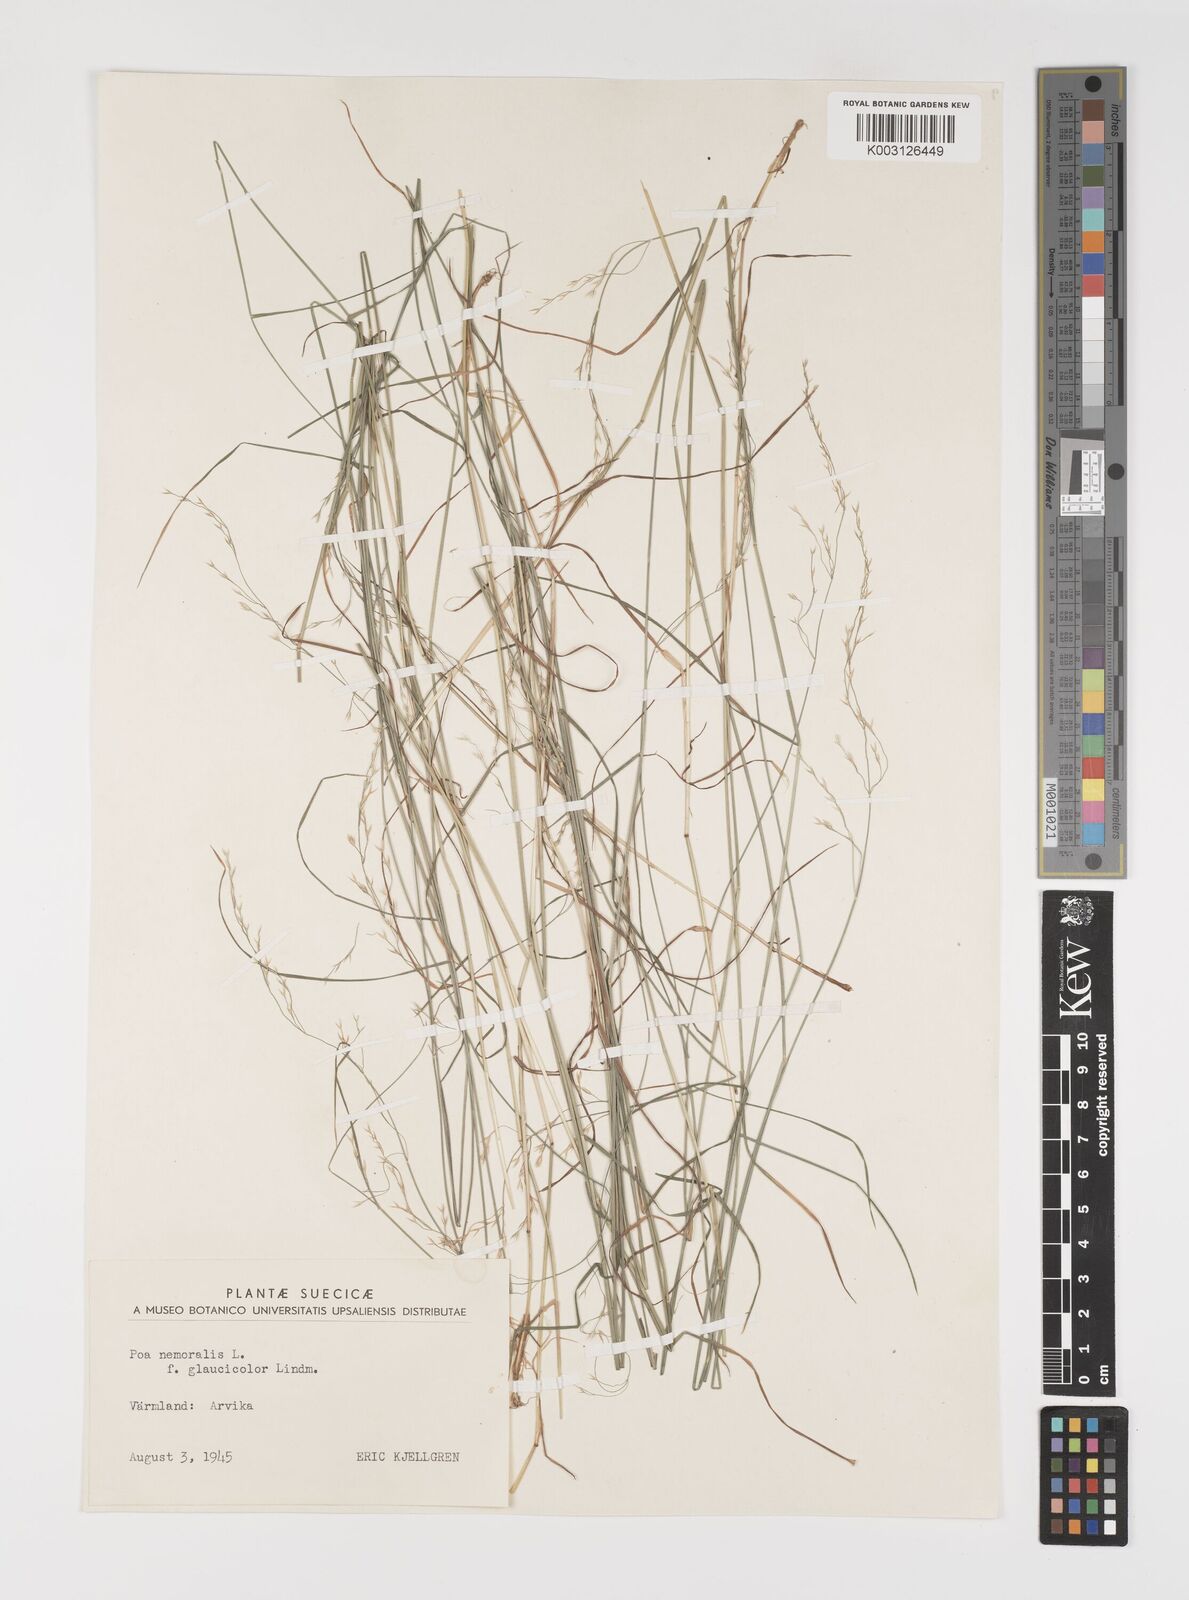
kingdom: Plantae
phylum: Tracheophyta
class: Liliopsida
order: Poales
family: Poaceae
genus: Poa
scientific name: Poa nemoralis
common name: Wood bluegrass
